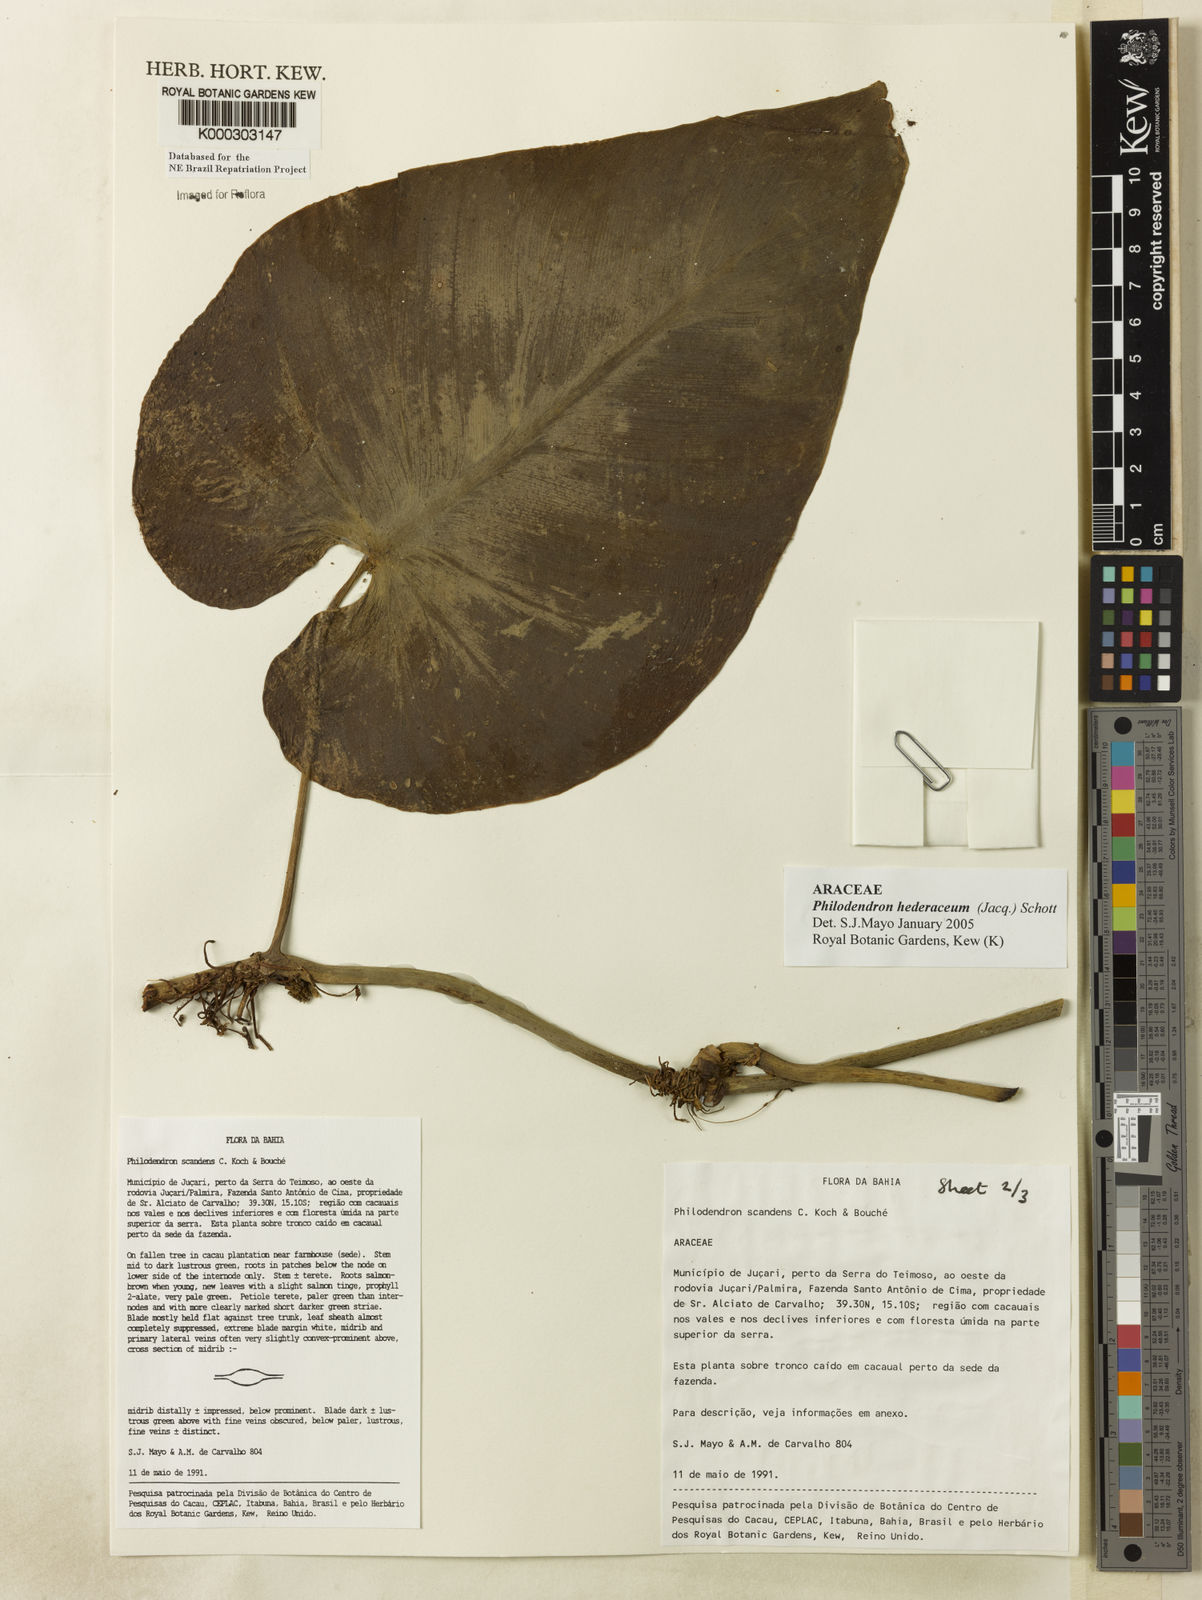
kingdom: Plantae
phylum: Tracheophyta
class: Liliopsida
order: Alismatales
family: Araceae
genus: Philodendron
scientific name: Philodendron hederaceum
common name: Vilevine
